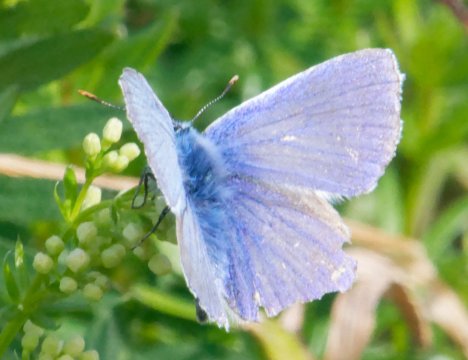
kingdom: Animalia
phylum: Arthropoda
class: Insecta
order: Lepidoptera
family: Lycaenidae
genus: Polyommatus
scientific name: Polyommatus icarus
